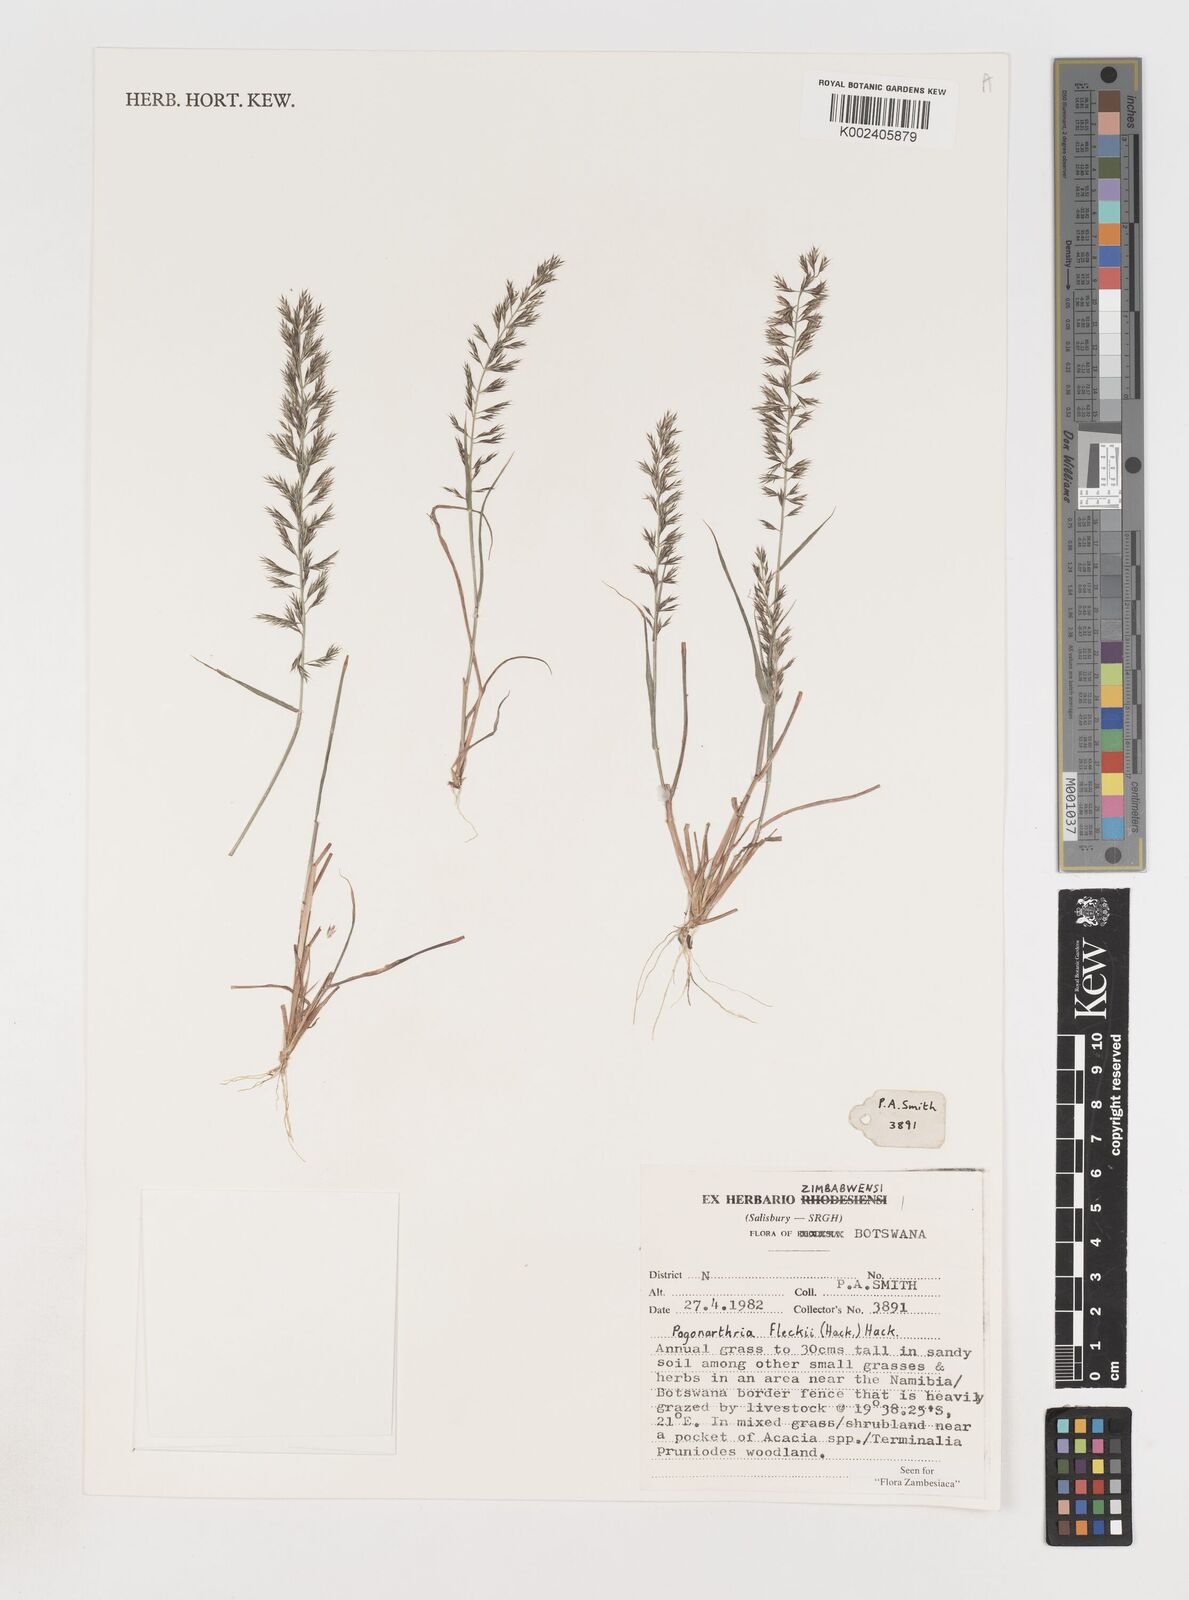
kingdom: Plantae
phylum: Tracheophyta
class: Liliopsida
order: Poales
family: Poaceae
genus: Pogonarthria
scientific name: Pogonarthria fleckii
